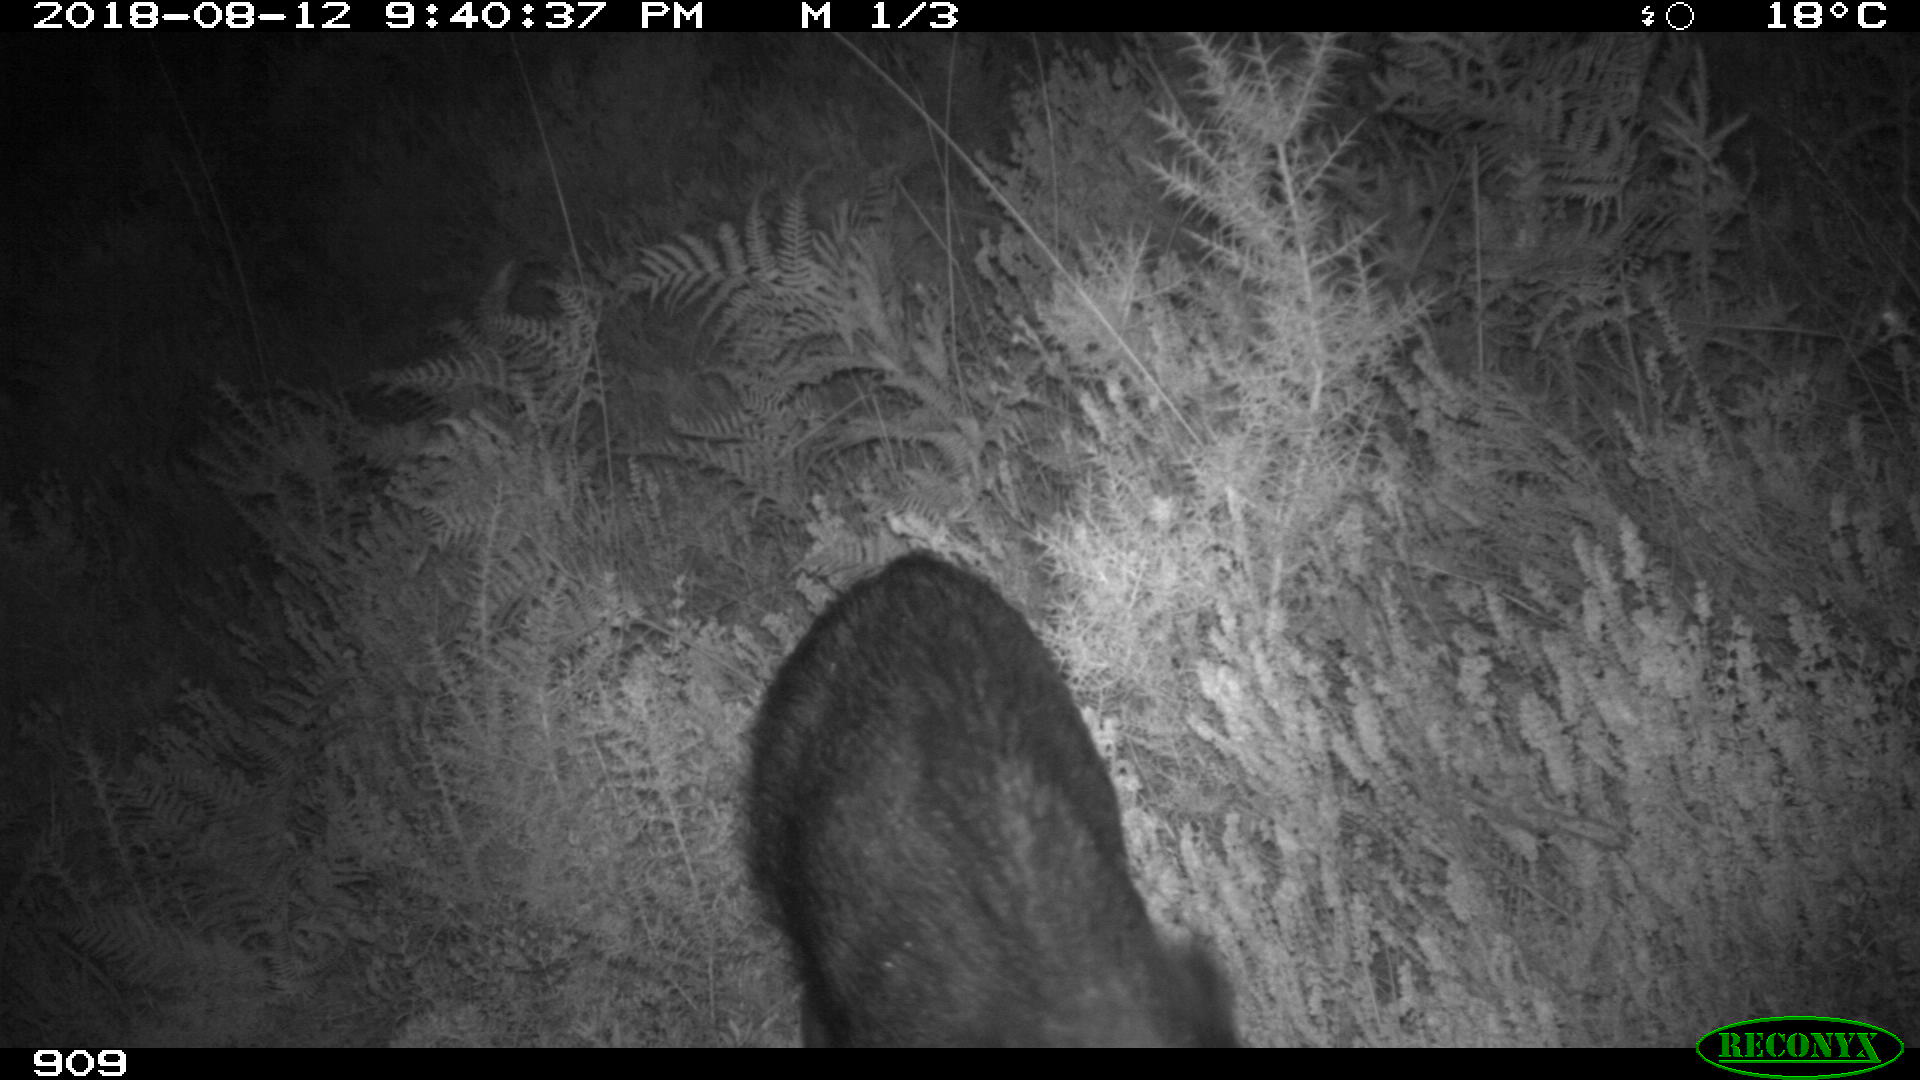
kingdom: Animalia
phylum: Chordata
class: Mammalia
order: Artiodactyla
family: Suidae
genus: Sus
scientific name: Sus scrofa
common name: Wild boar
